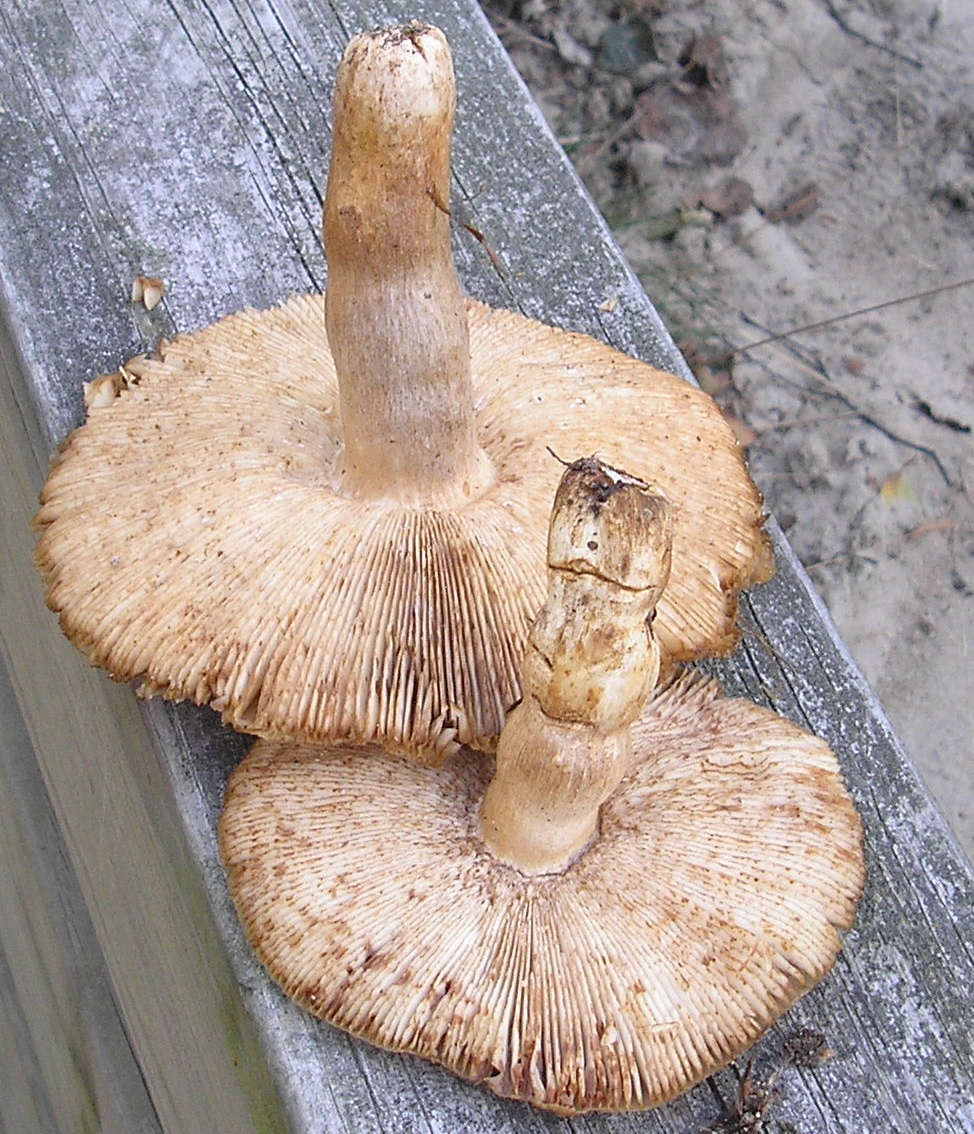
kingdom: Fungi
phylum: Basidiomycota
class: Agaricomycetes
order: Russulales
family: Russulaceae
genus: Russula
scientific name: Russula grata
